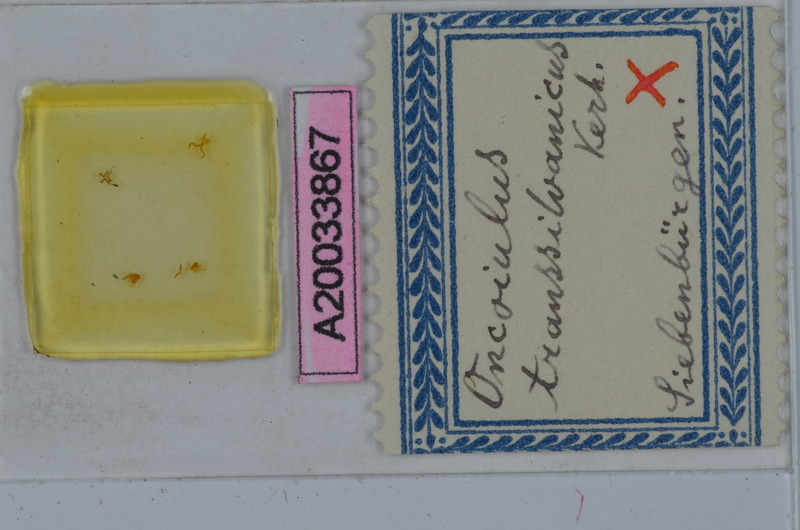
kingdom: Animalia
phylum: Arthropoda
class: Diplopoda
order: Julida
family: Julidae
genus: Unciger
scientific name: Unciger transsilvanicus
